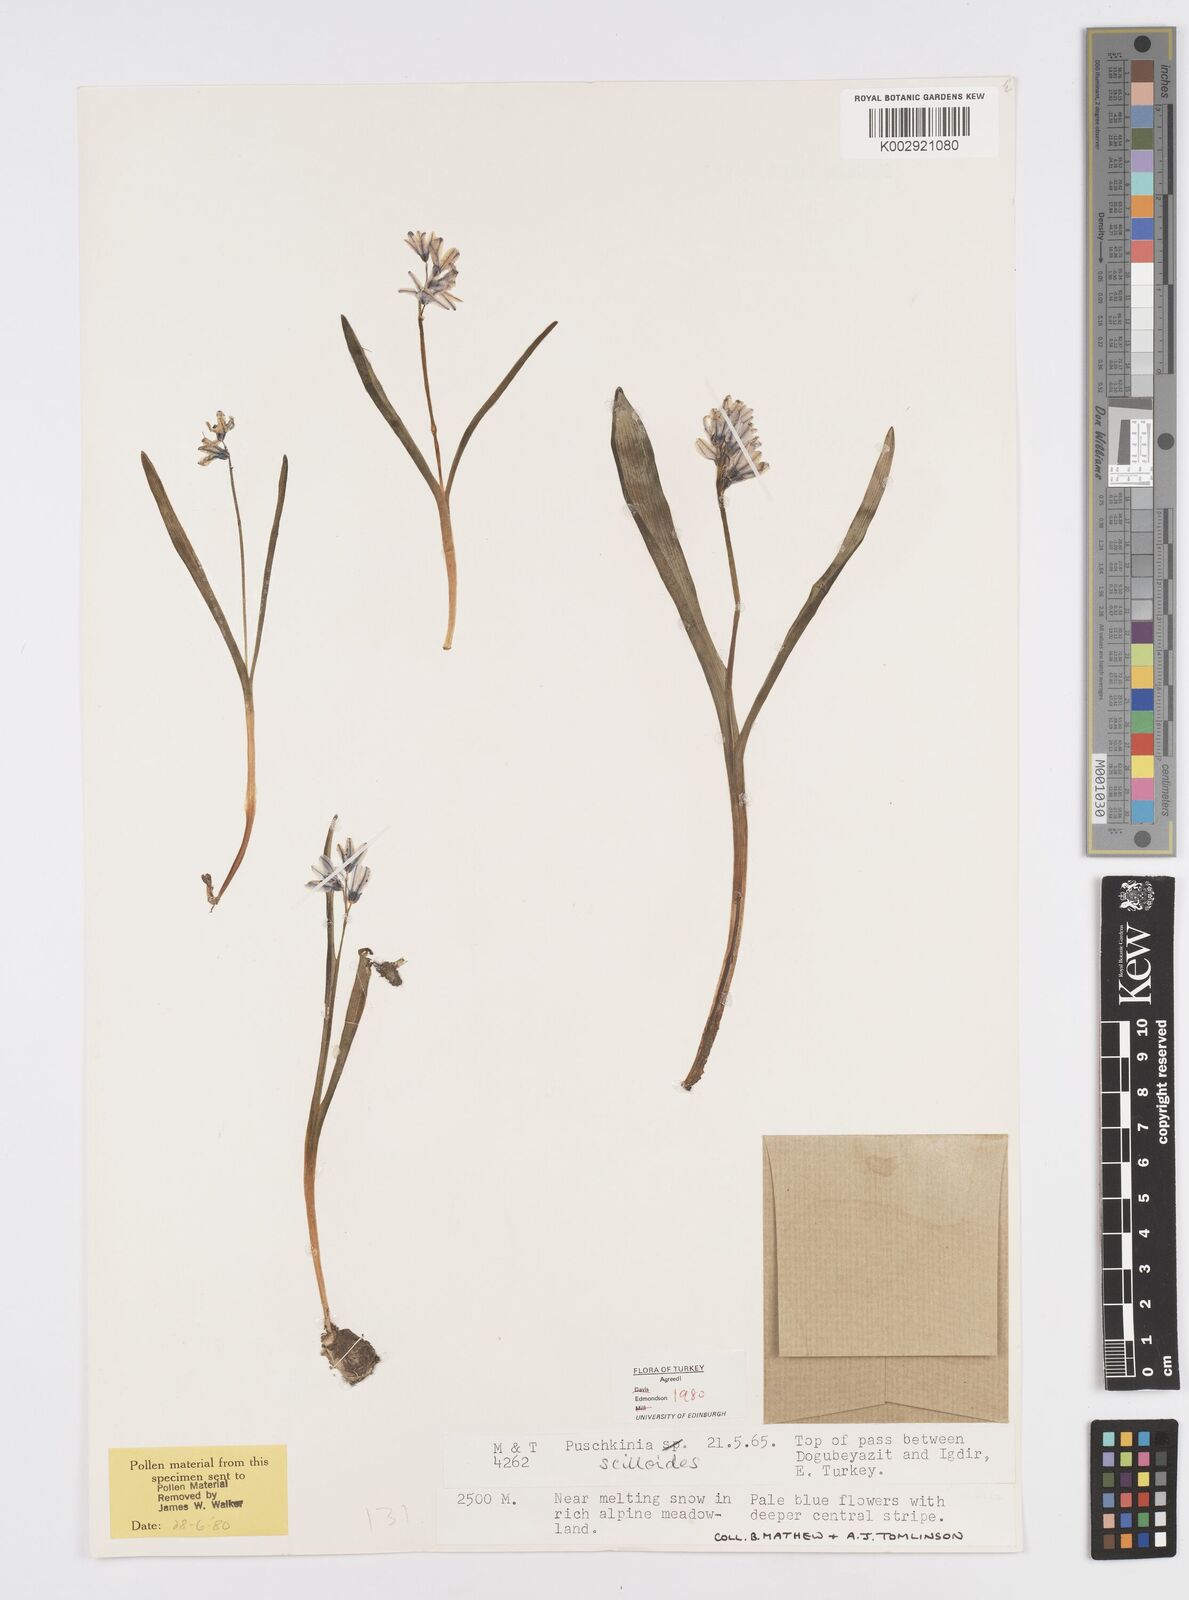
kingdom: Plantae
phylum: Tracheophyta
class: Liliopsida
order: Asparagales
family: Asparagaceae
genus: Puschkinia
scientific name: Puschkinia scilloides
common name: Striped squill
